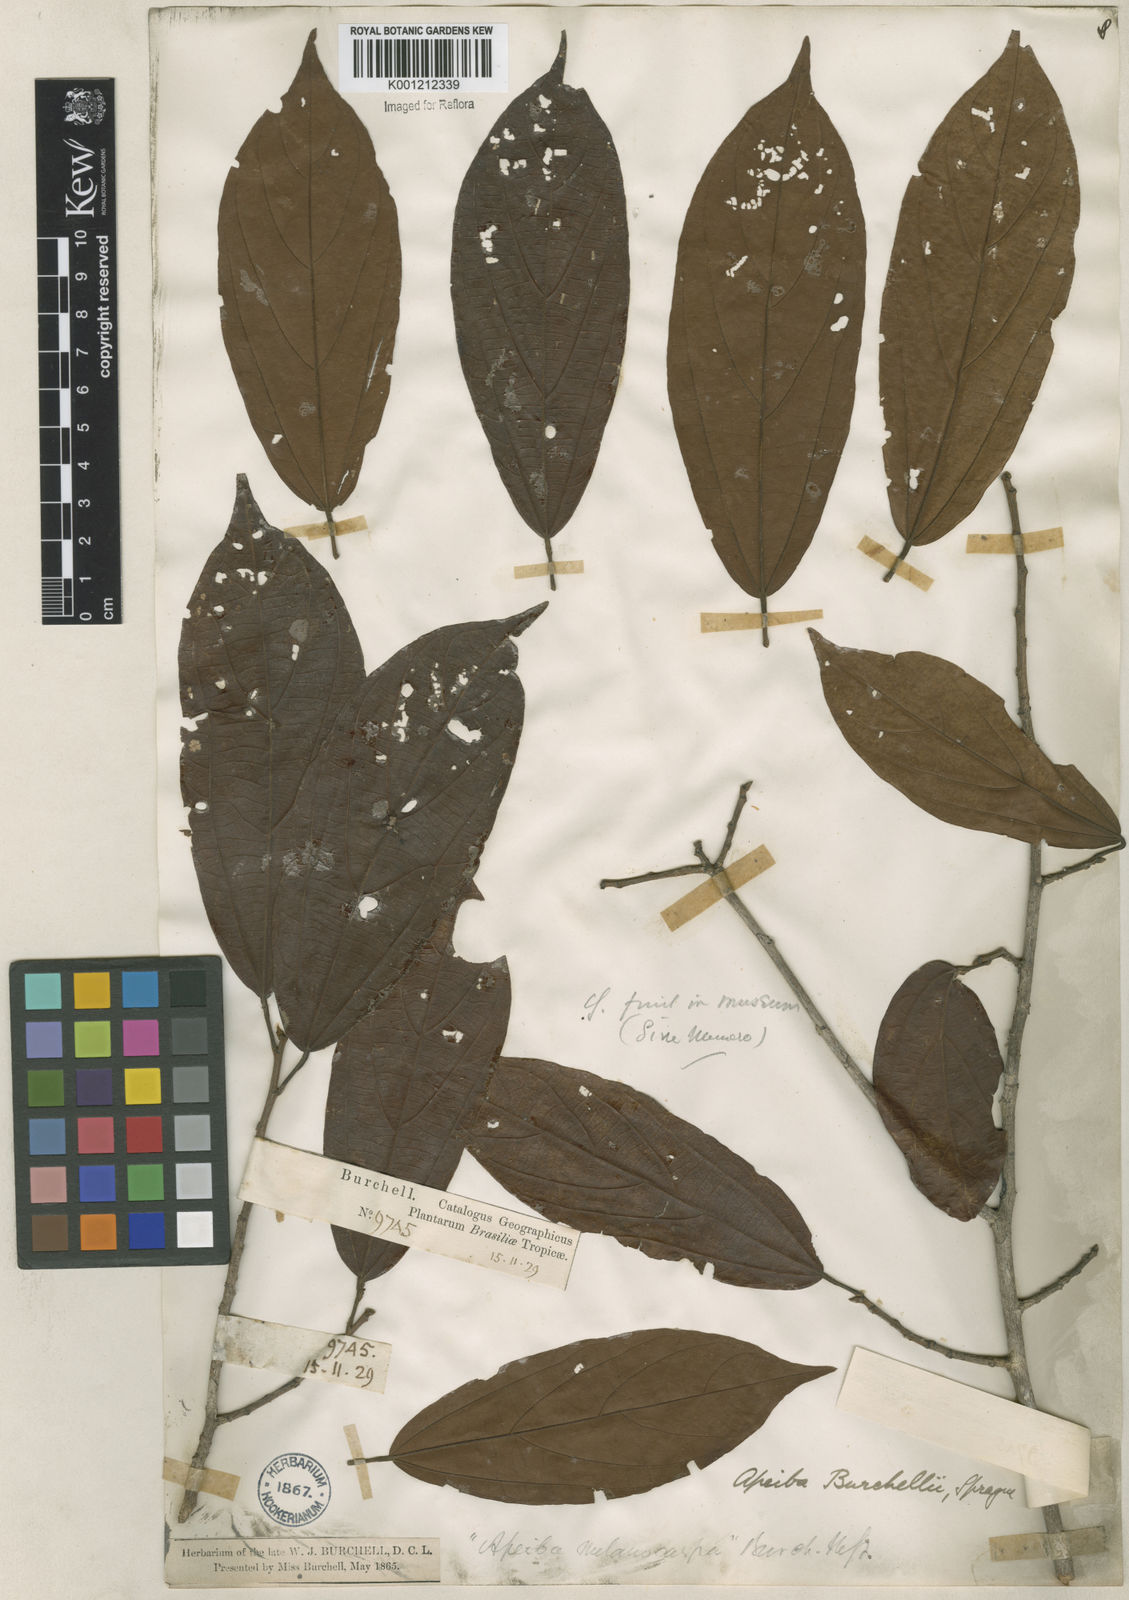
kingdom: Plantae
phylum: Tracheophyta
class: Magnoliopsida
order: Malvales
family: Malvaceae
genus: Apeiba
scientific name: Apeiba glabra
